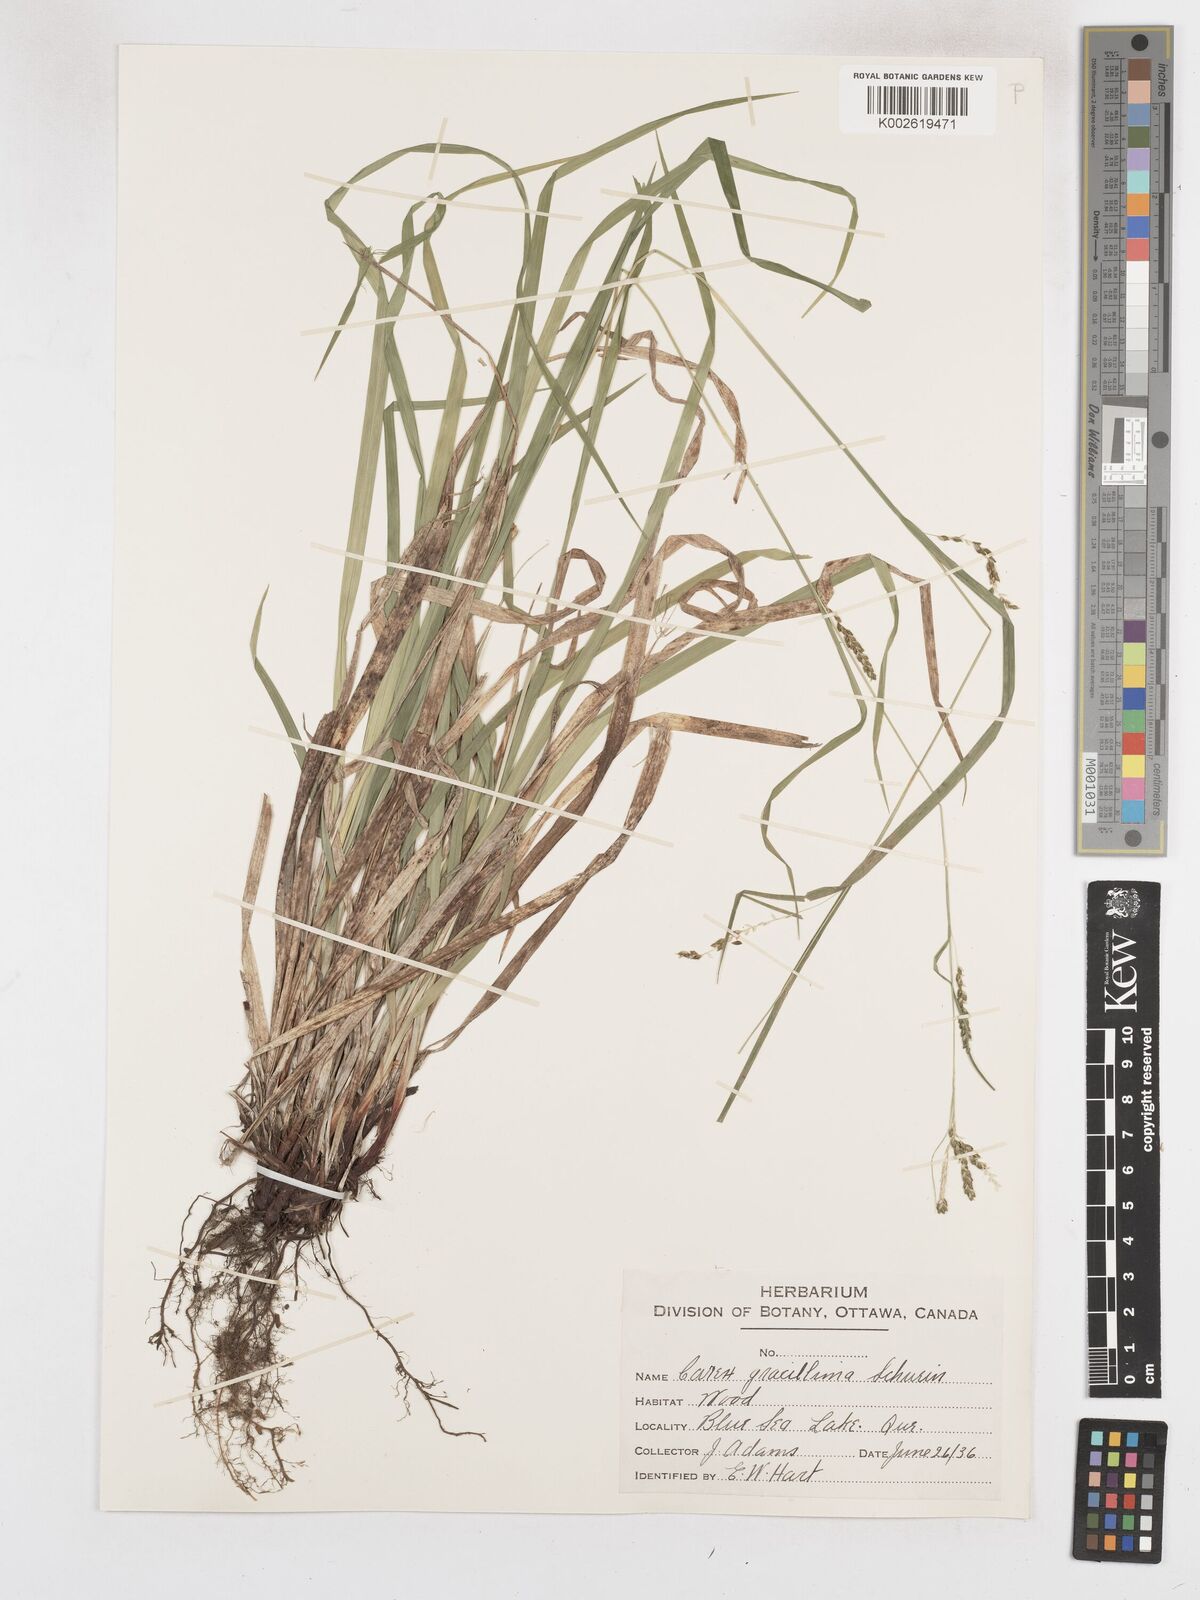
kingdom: Plantae
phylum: Tracheophyta
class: Liliopsida
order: Poales
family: Cyperaceae
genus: Carex
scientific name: Carex gracillima
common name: Graceful sedge
